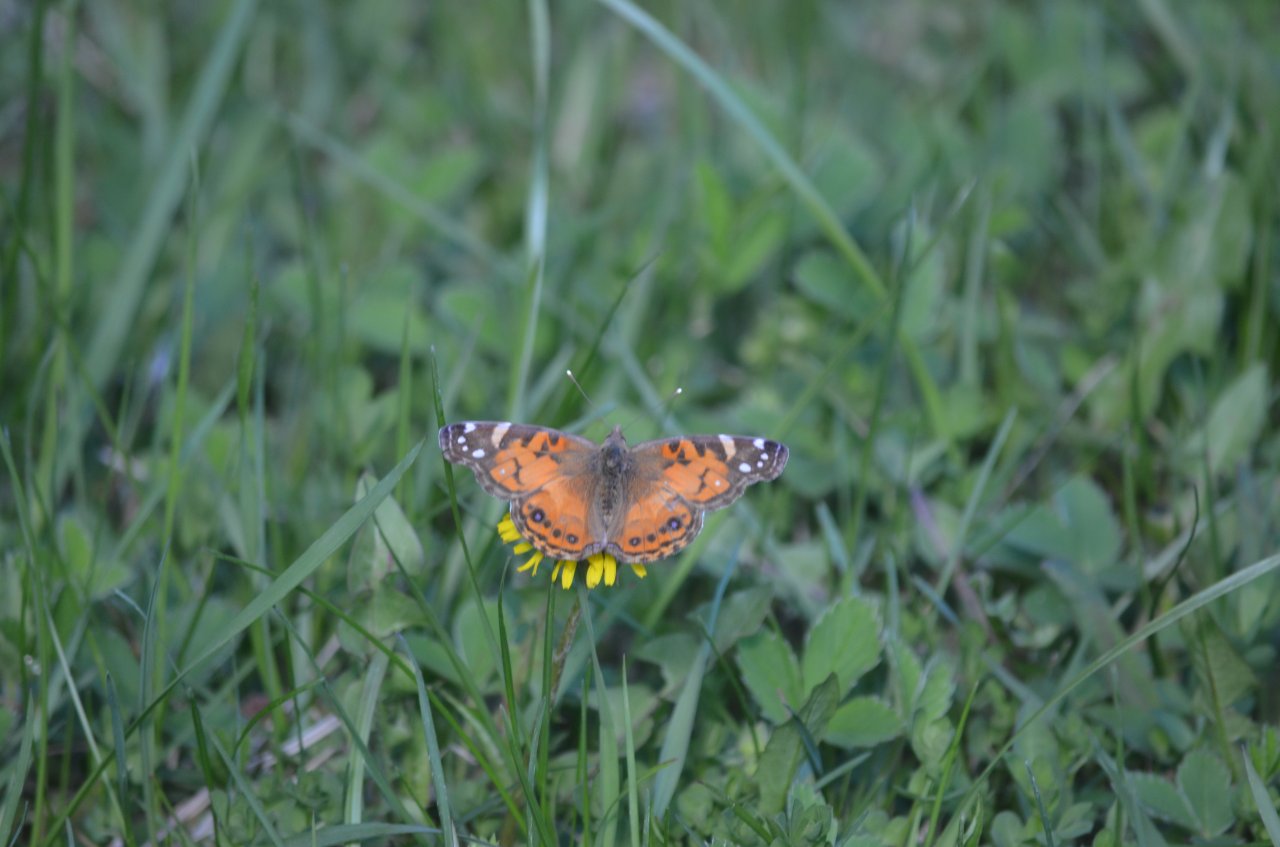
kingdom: Animalia
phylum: Arthropoda
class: Insecta
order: Lepidoptera
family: Nymphalidae
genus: Vanessa
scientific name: Vanessa virginiensis
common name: American Lady
